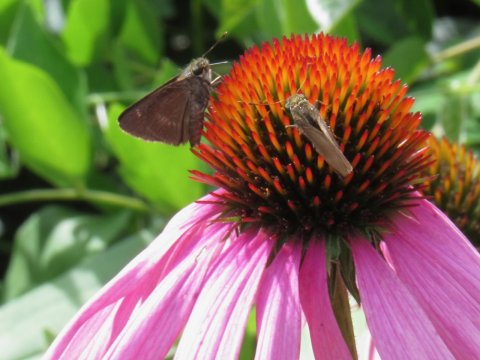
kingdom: Animalia
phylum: Arthropoda
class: Insecta
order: Lepidoptera
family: Hesperiidae
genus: Euphyes
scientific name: Euphyes vestris
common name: Dun Skipper
